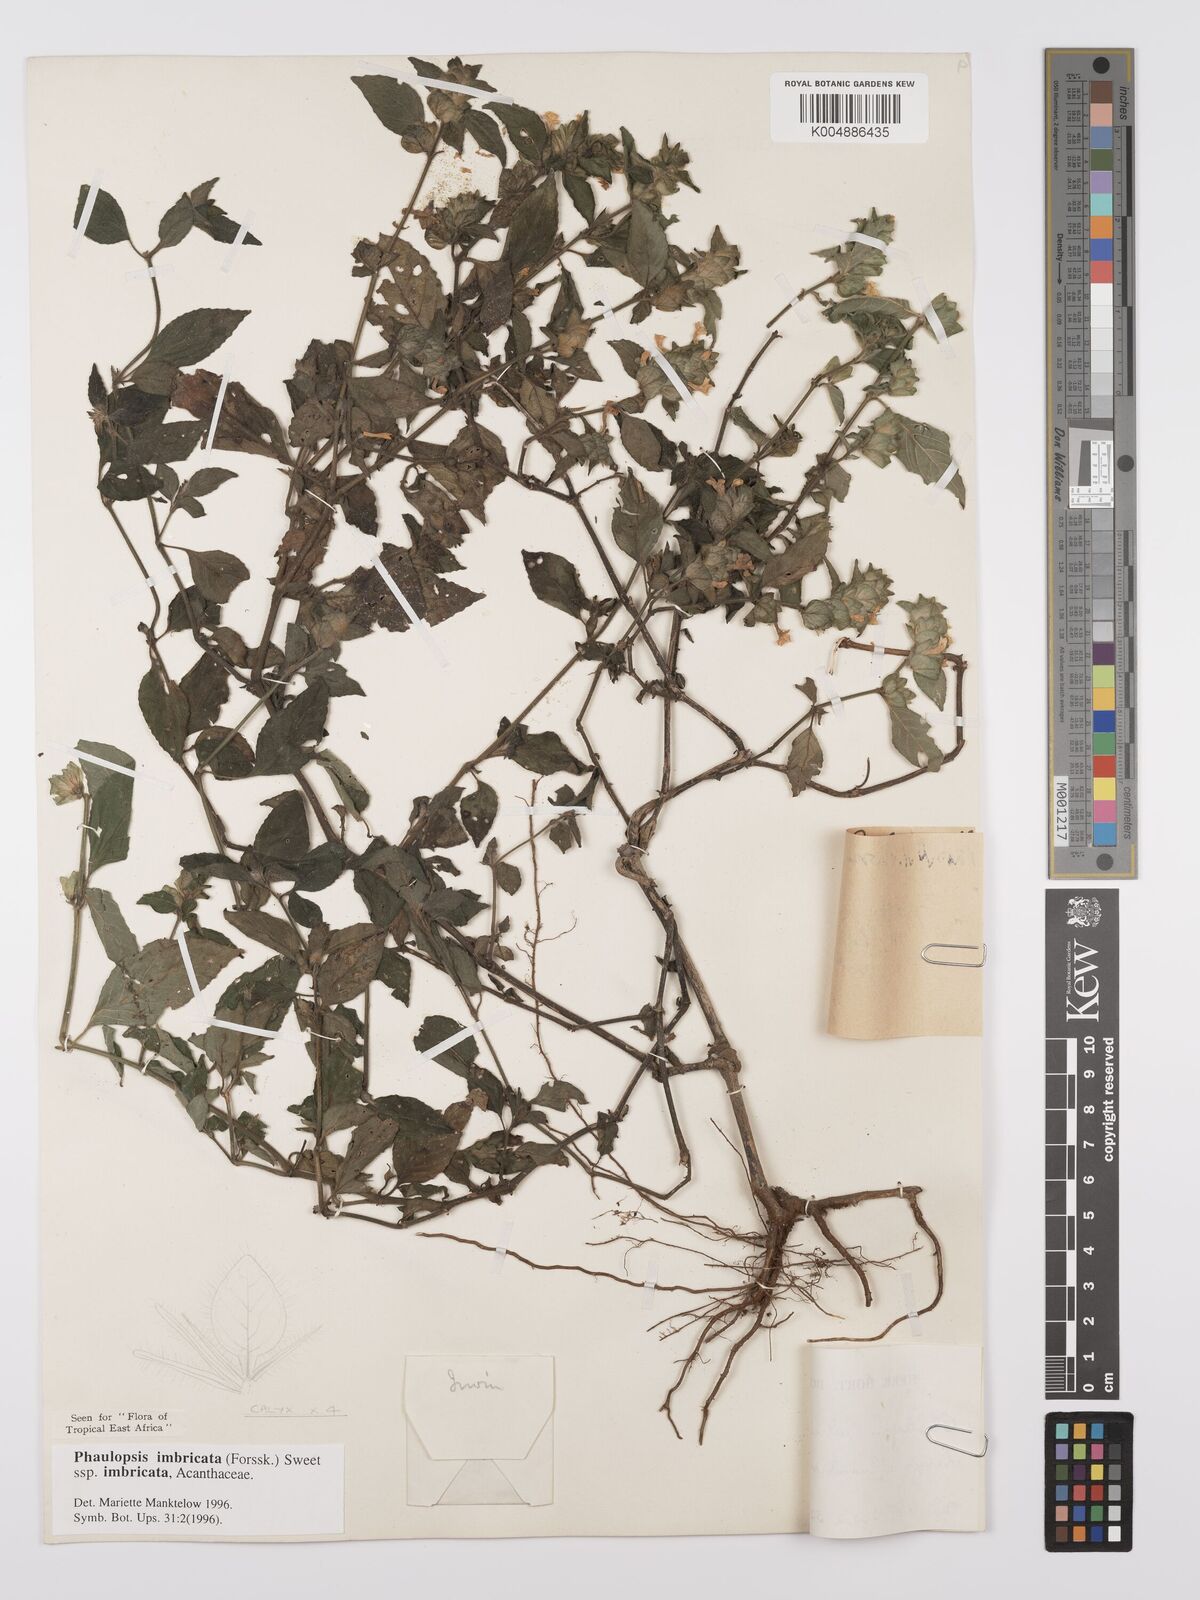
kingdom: Plantae
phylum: Tracheophyta
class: Magnoliopsida
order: Lamiales
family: Acanthaceae
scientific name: Acanthaceae
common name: Acanthaceae
